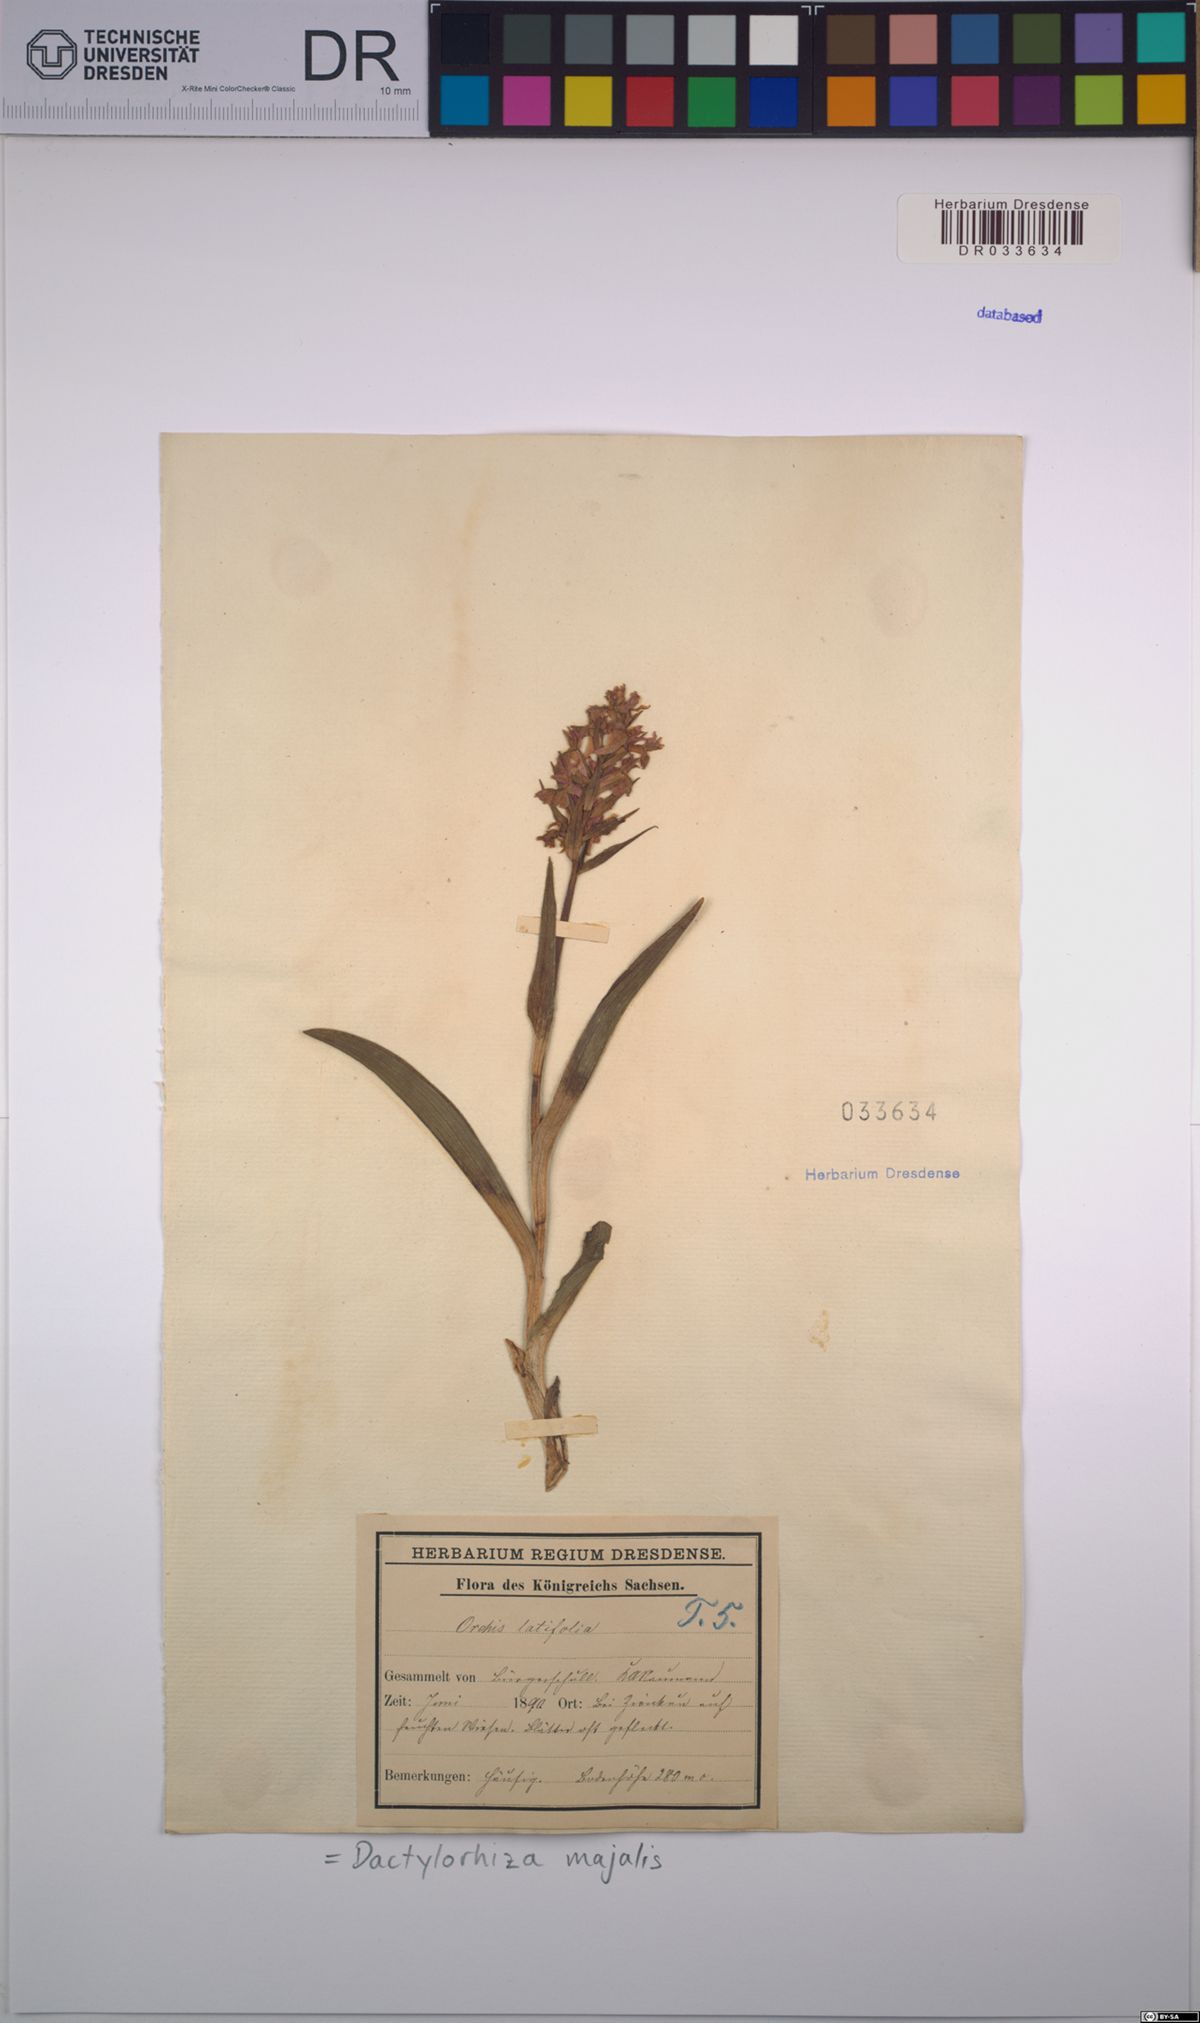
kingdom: Plantae
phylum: Tracheophyta
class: Liliopsida
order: Asparagales
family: Orchidaceae
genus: Dactylorhiza
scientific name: Dactylorhiza majalis
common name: Marsh orchid
